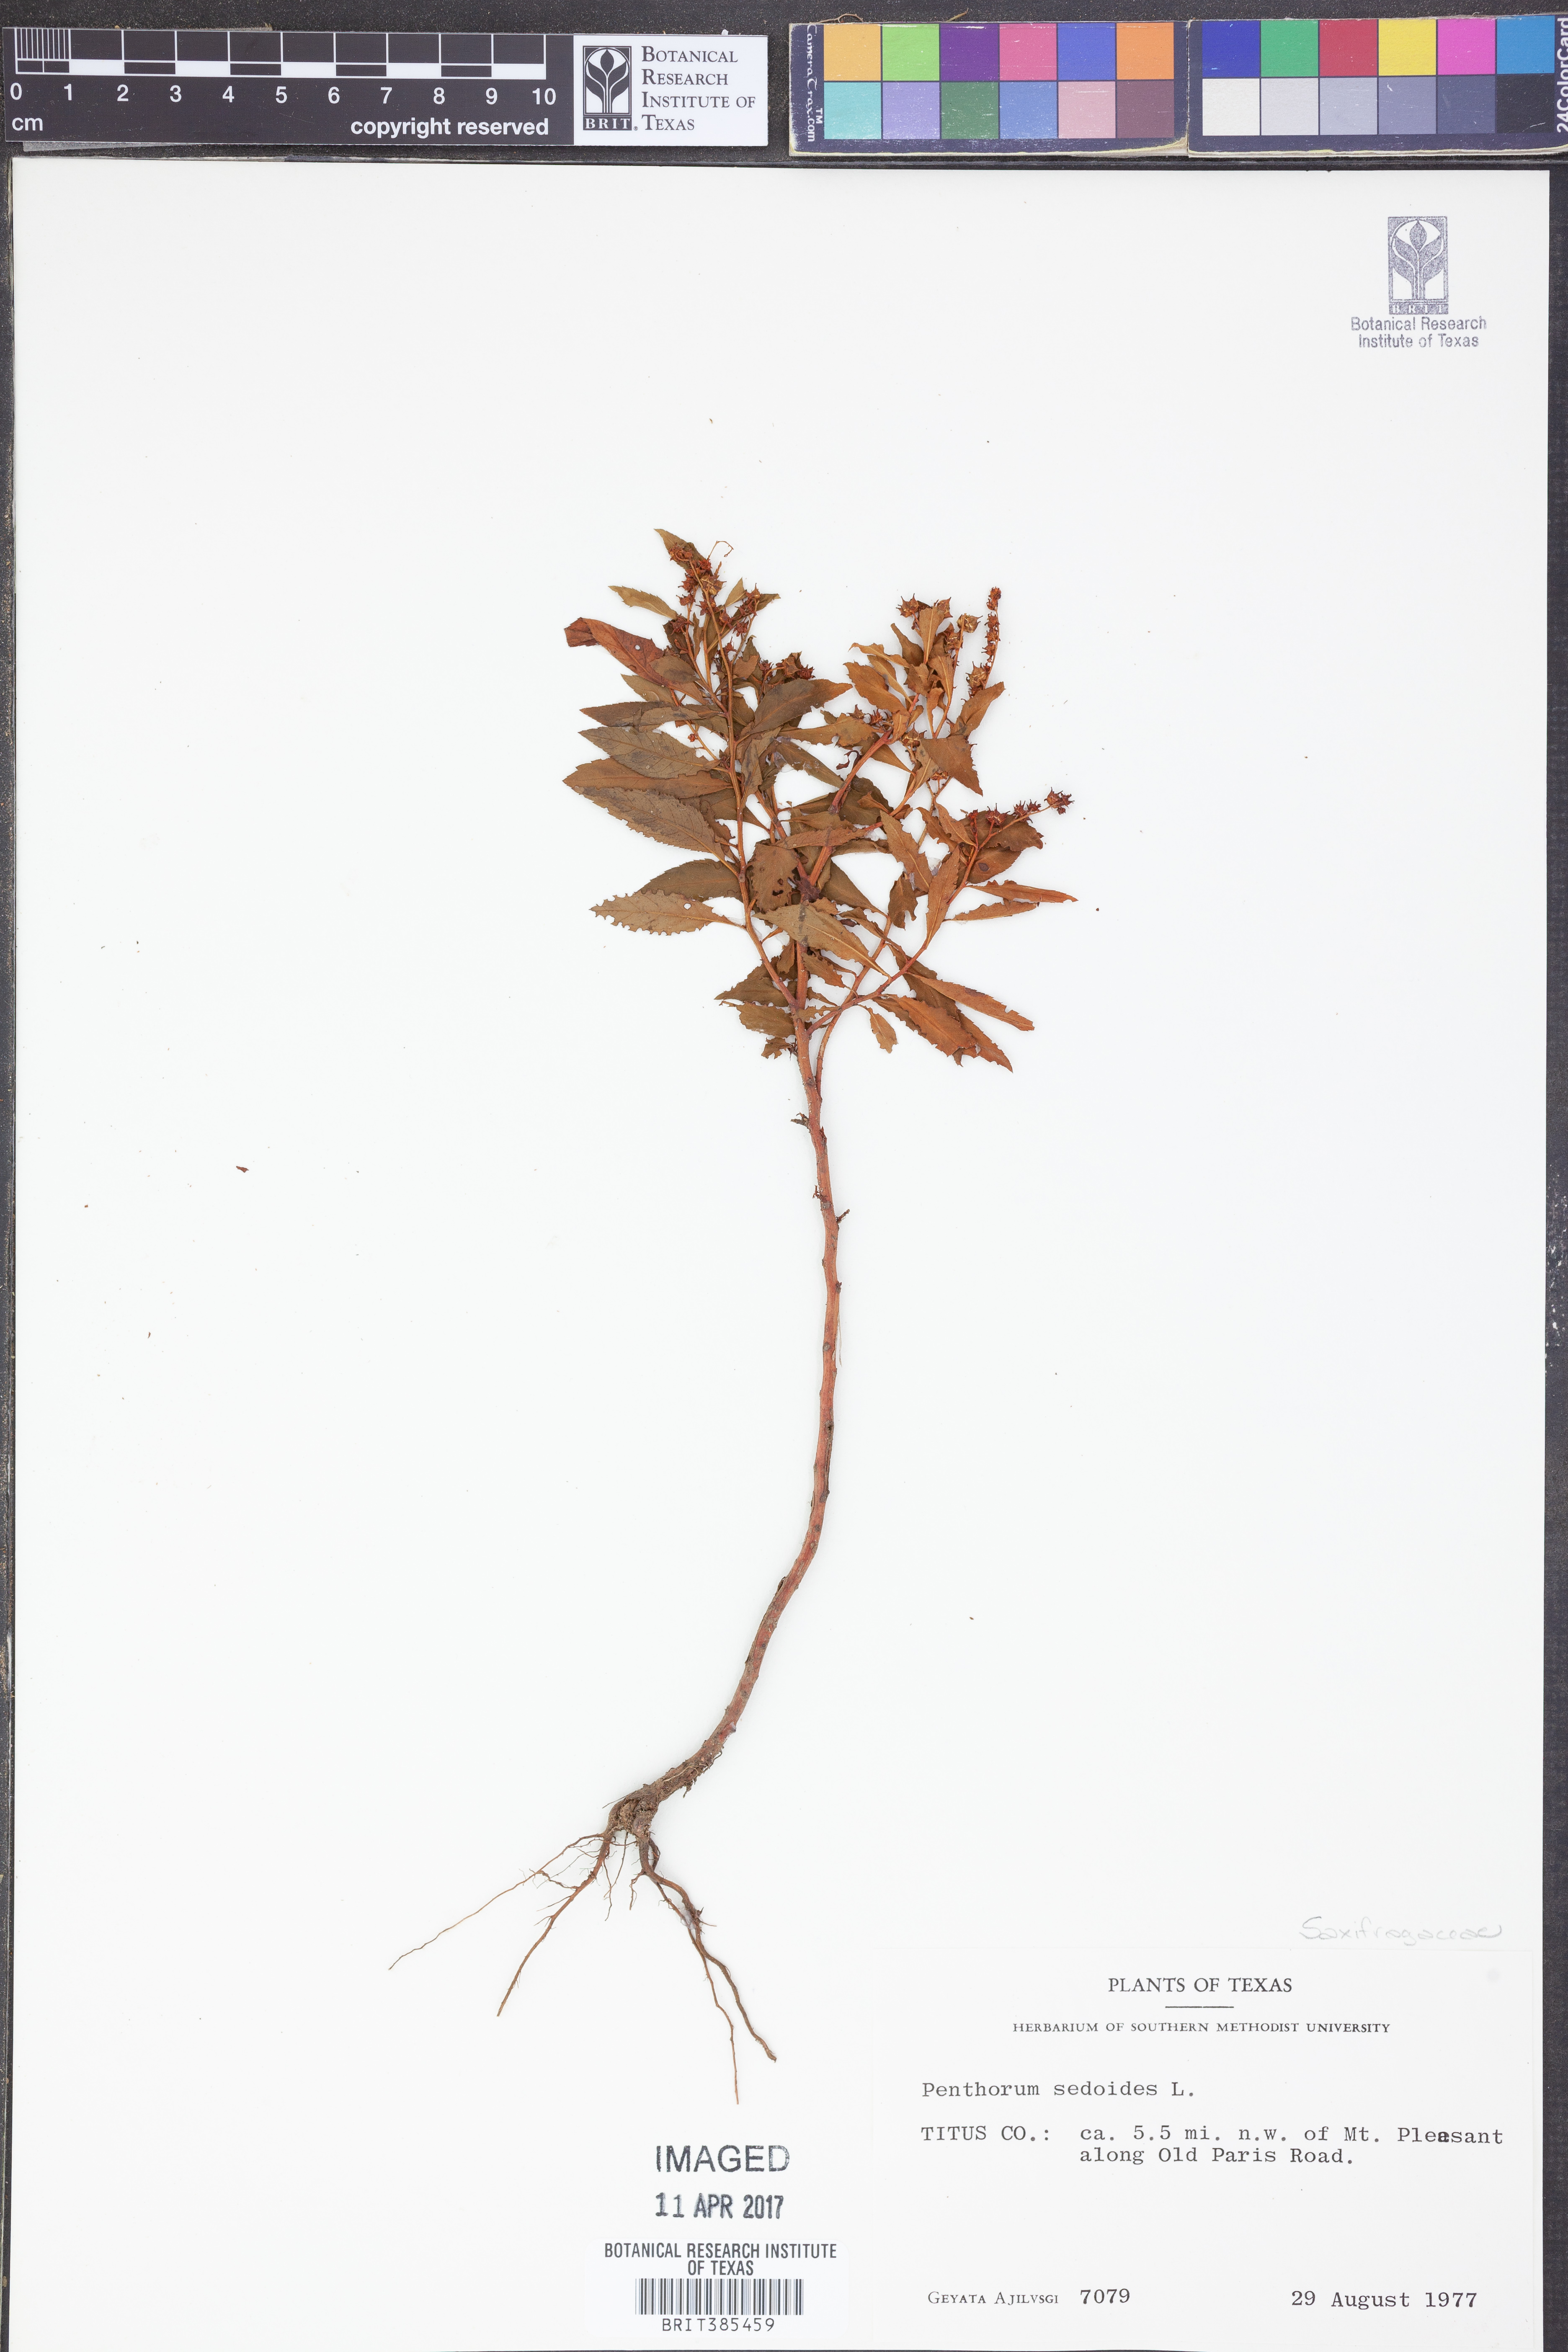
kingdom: Plantae
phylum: Tracheophyta
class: Magnoliopsida
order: Saxifragales
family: Penthoraceae
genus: Penthorum
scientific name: Penthorum sedoides
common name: Ditch stonecrop
